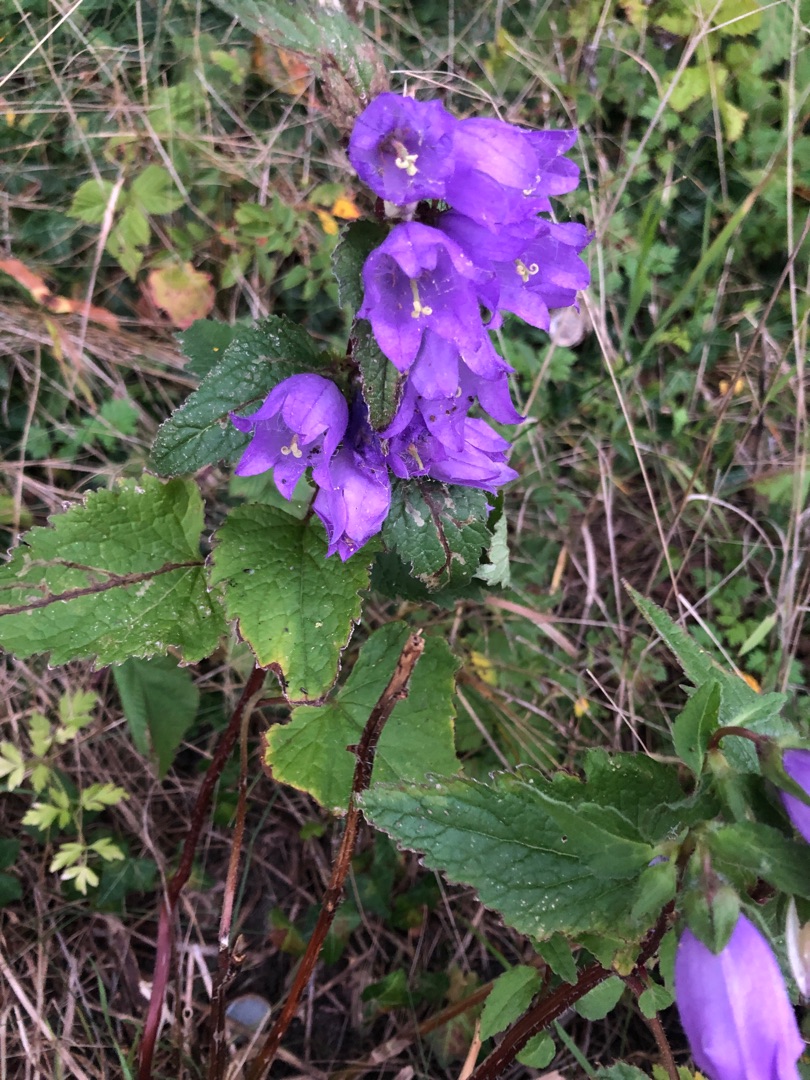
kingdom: Plantae
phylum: Tracheophyta
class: Magnoliopsida
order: Asterales
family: Campanulaceae
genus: Campanula
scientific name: Campanula trachelium
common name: Nælde-klokke
